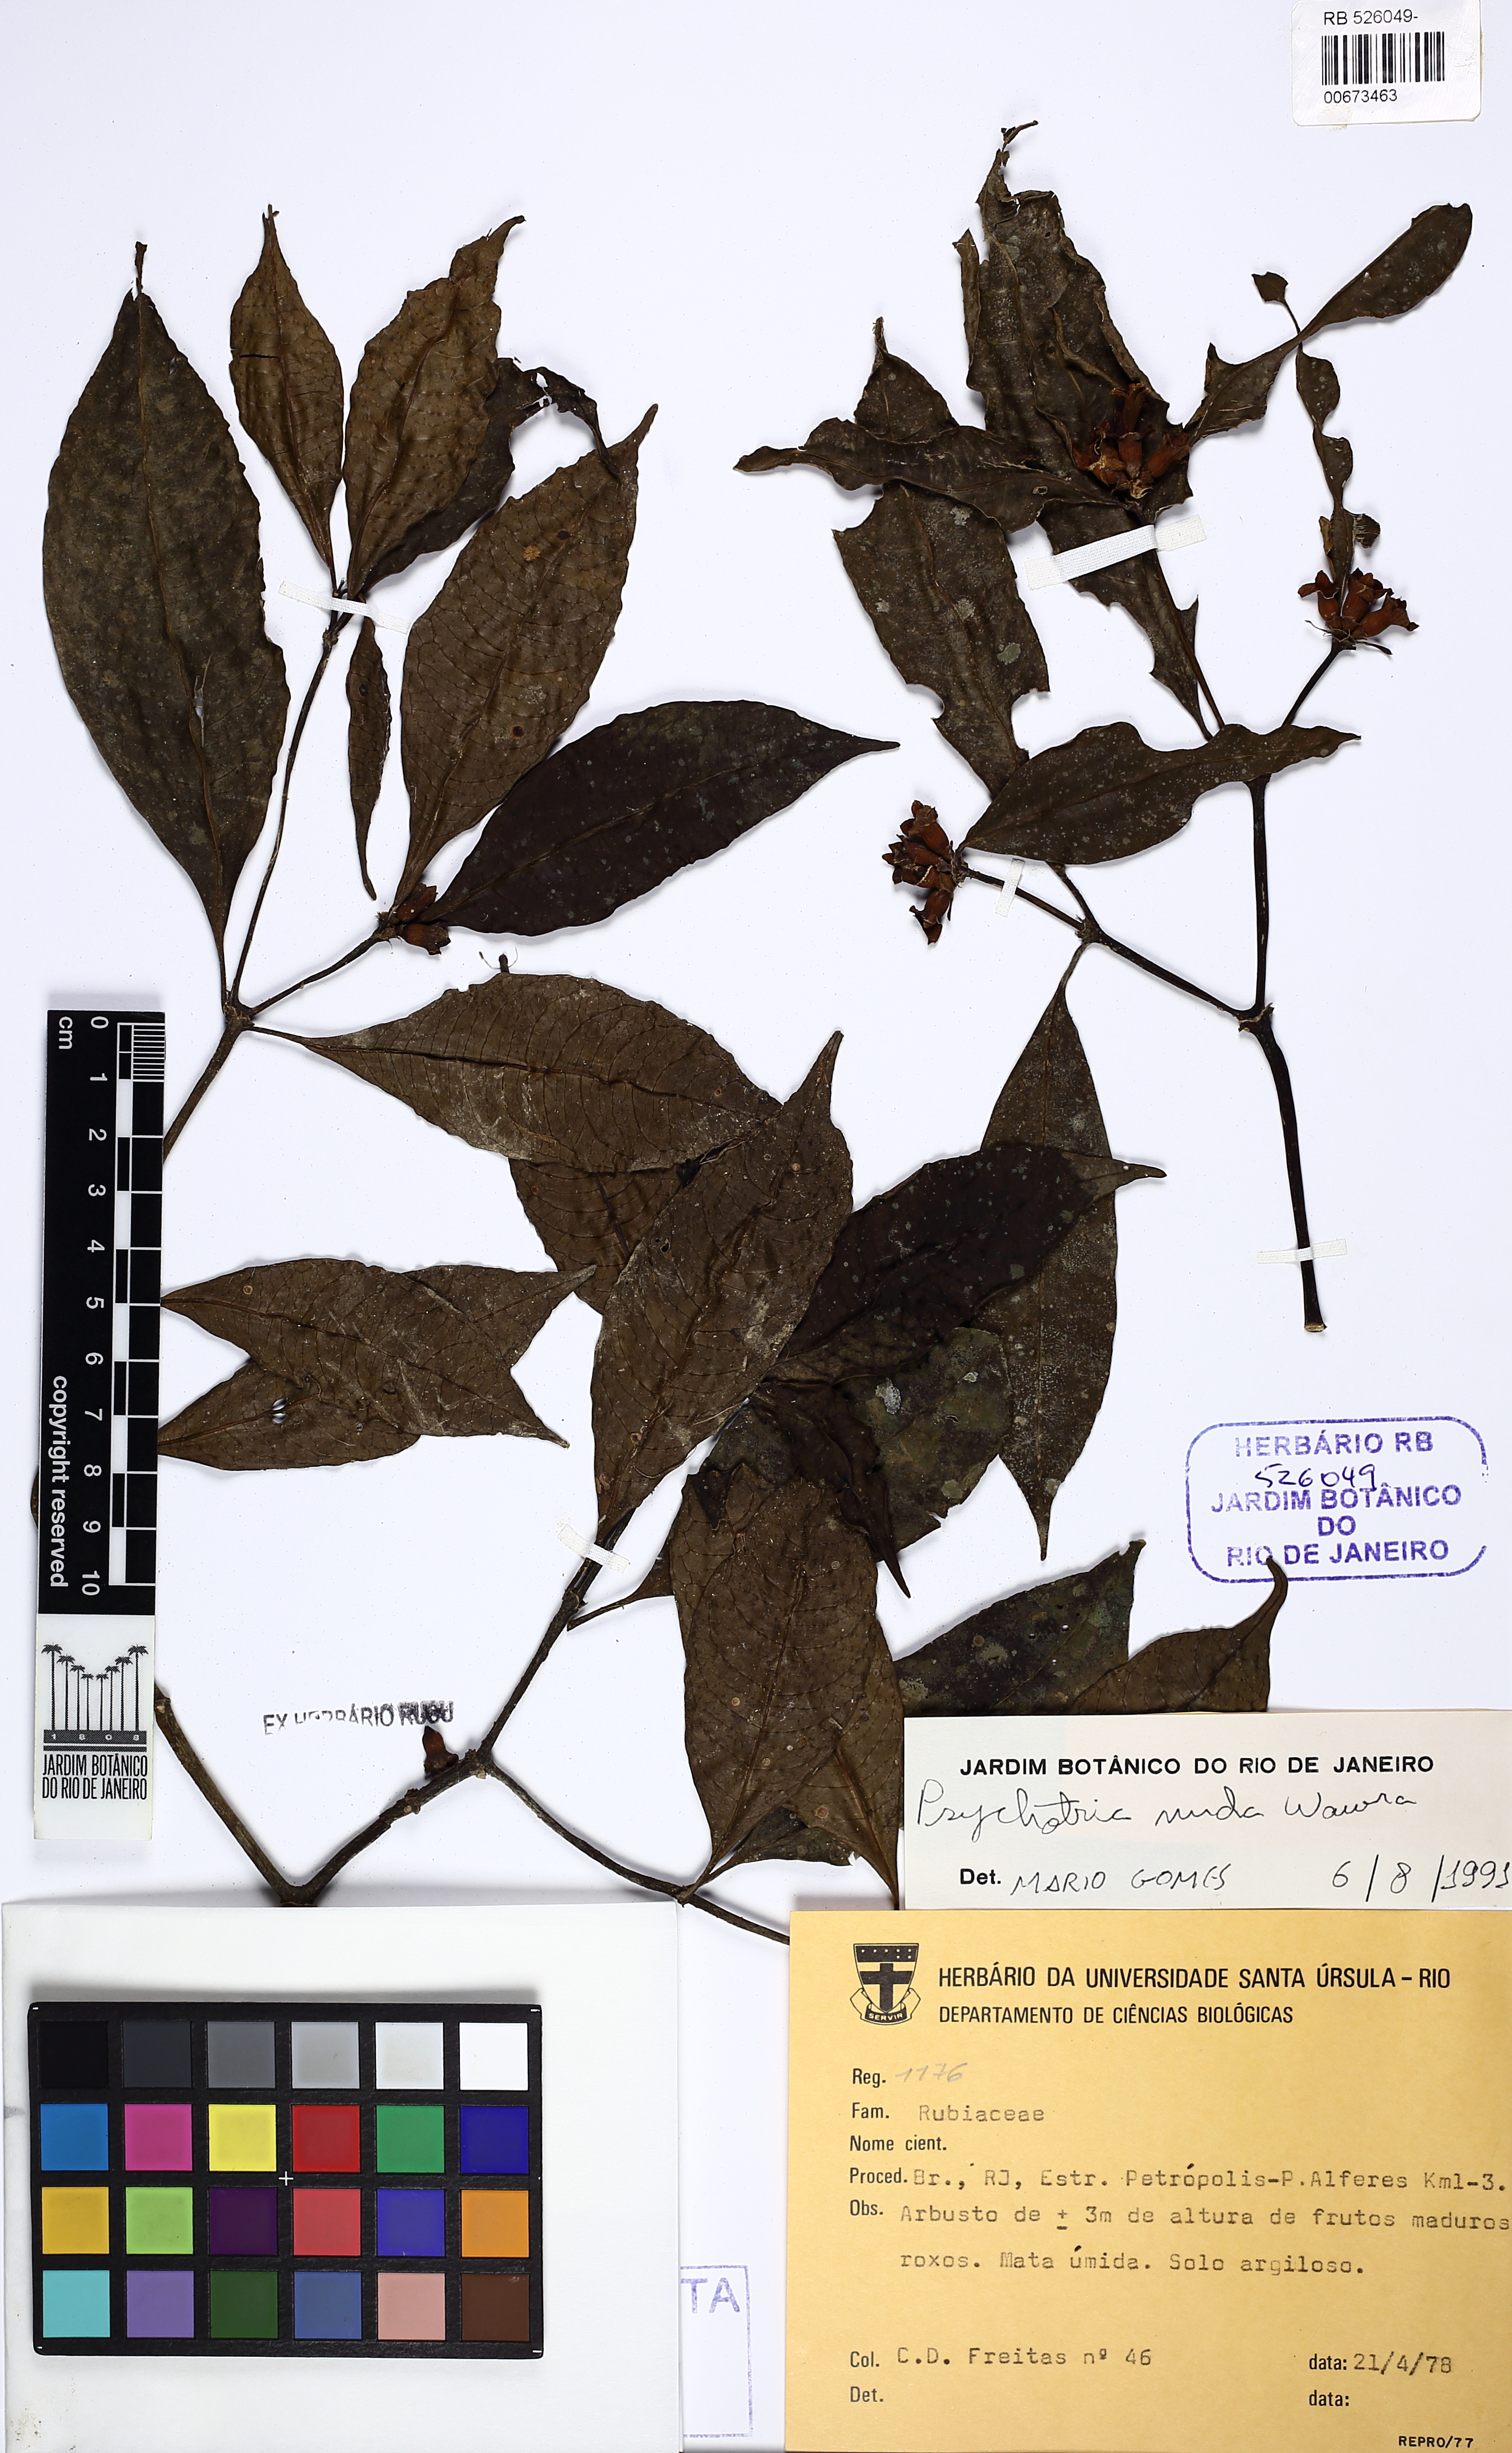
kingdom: Plantae
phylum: Tracheophyta
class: Magnoliopsida
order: Gentianales
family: Rubiaceae
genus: Psychotria
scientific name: Psychotria nuda
